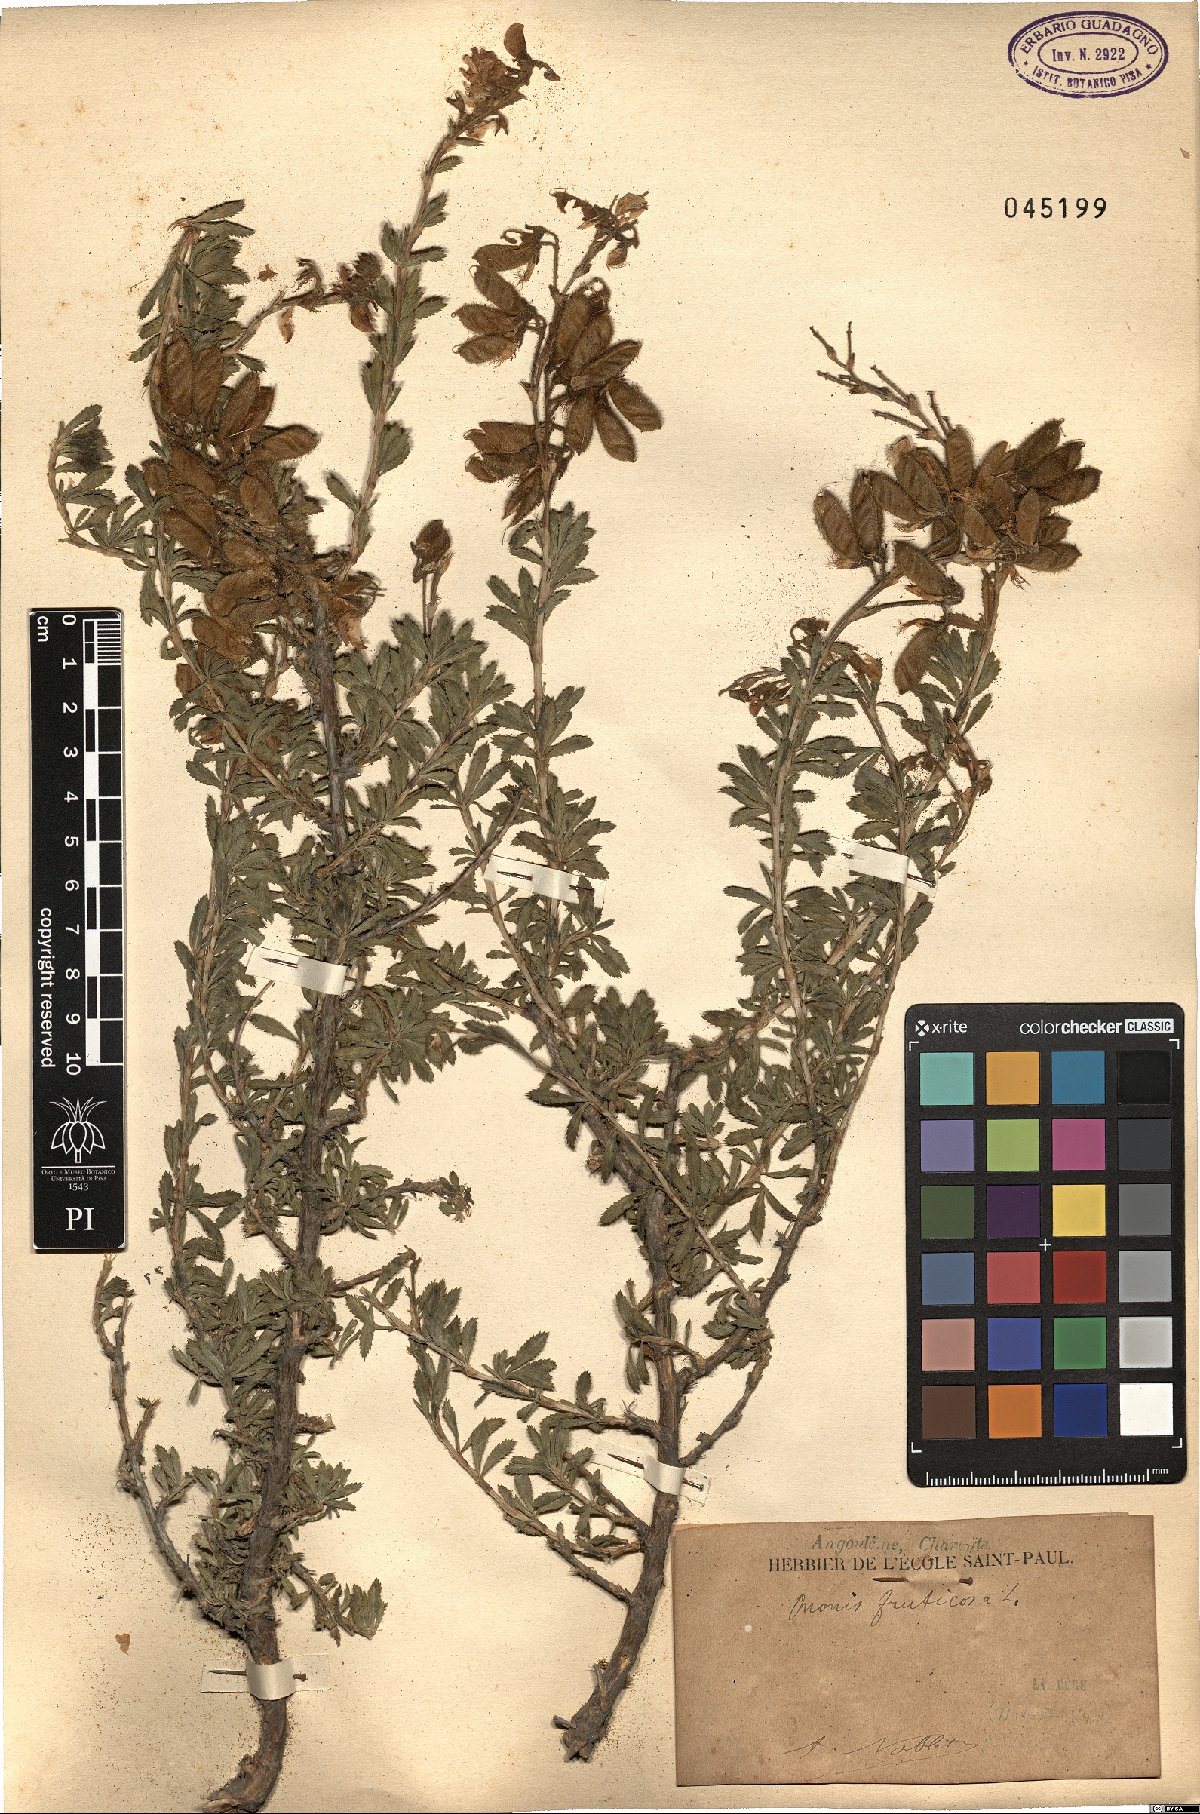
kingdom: Plantae
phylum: Tracheophyta
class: Magnoliopsida
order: Fabales
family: Fabaceae
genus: Ononis
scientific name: Ononis fruticosa
